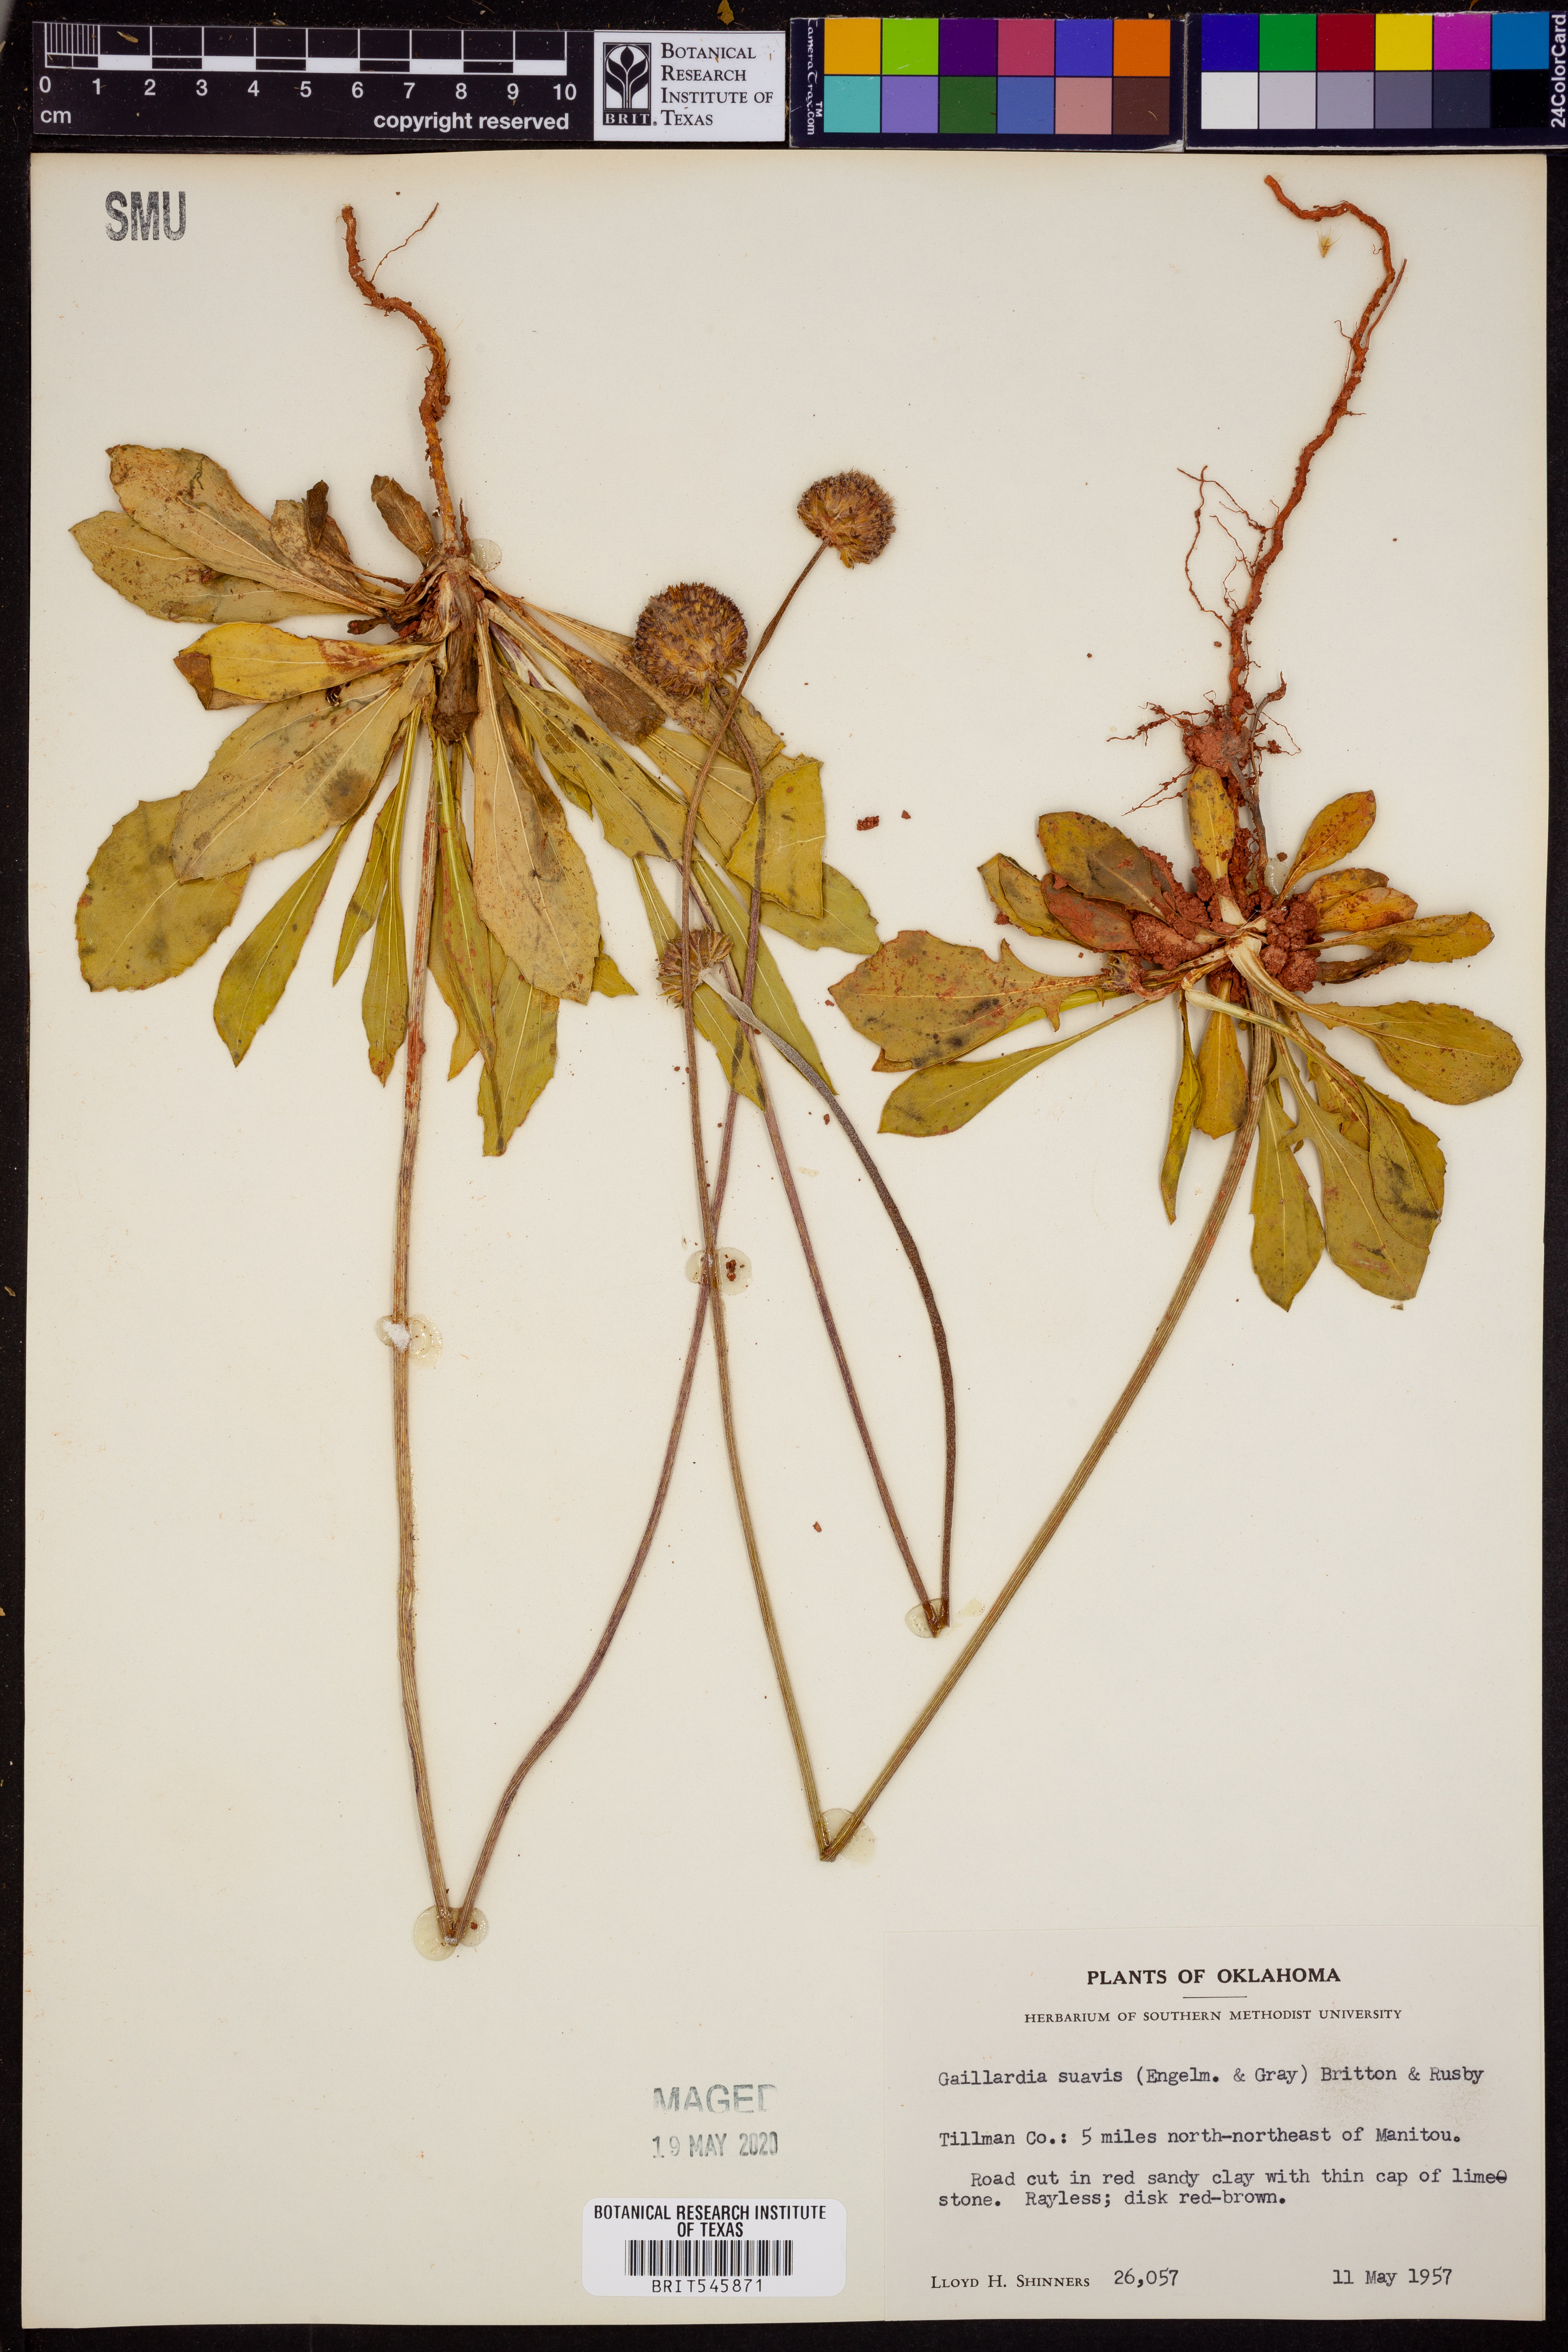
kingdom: Plantae
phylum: Tracheophyta
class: Magnoliopsida
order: Asterales
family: Asteraceae
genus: Gaillardia
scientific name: Gaillardia suavis
